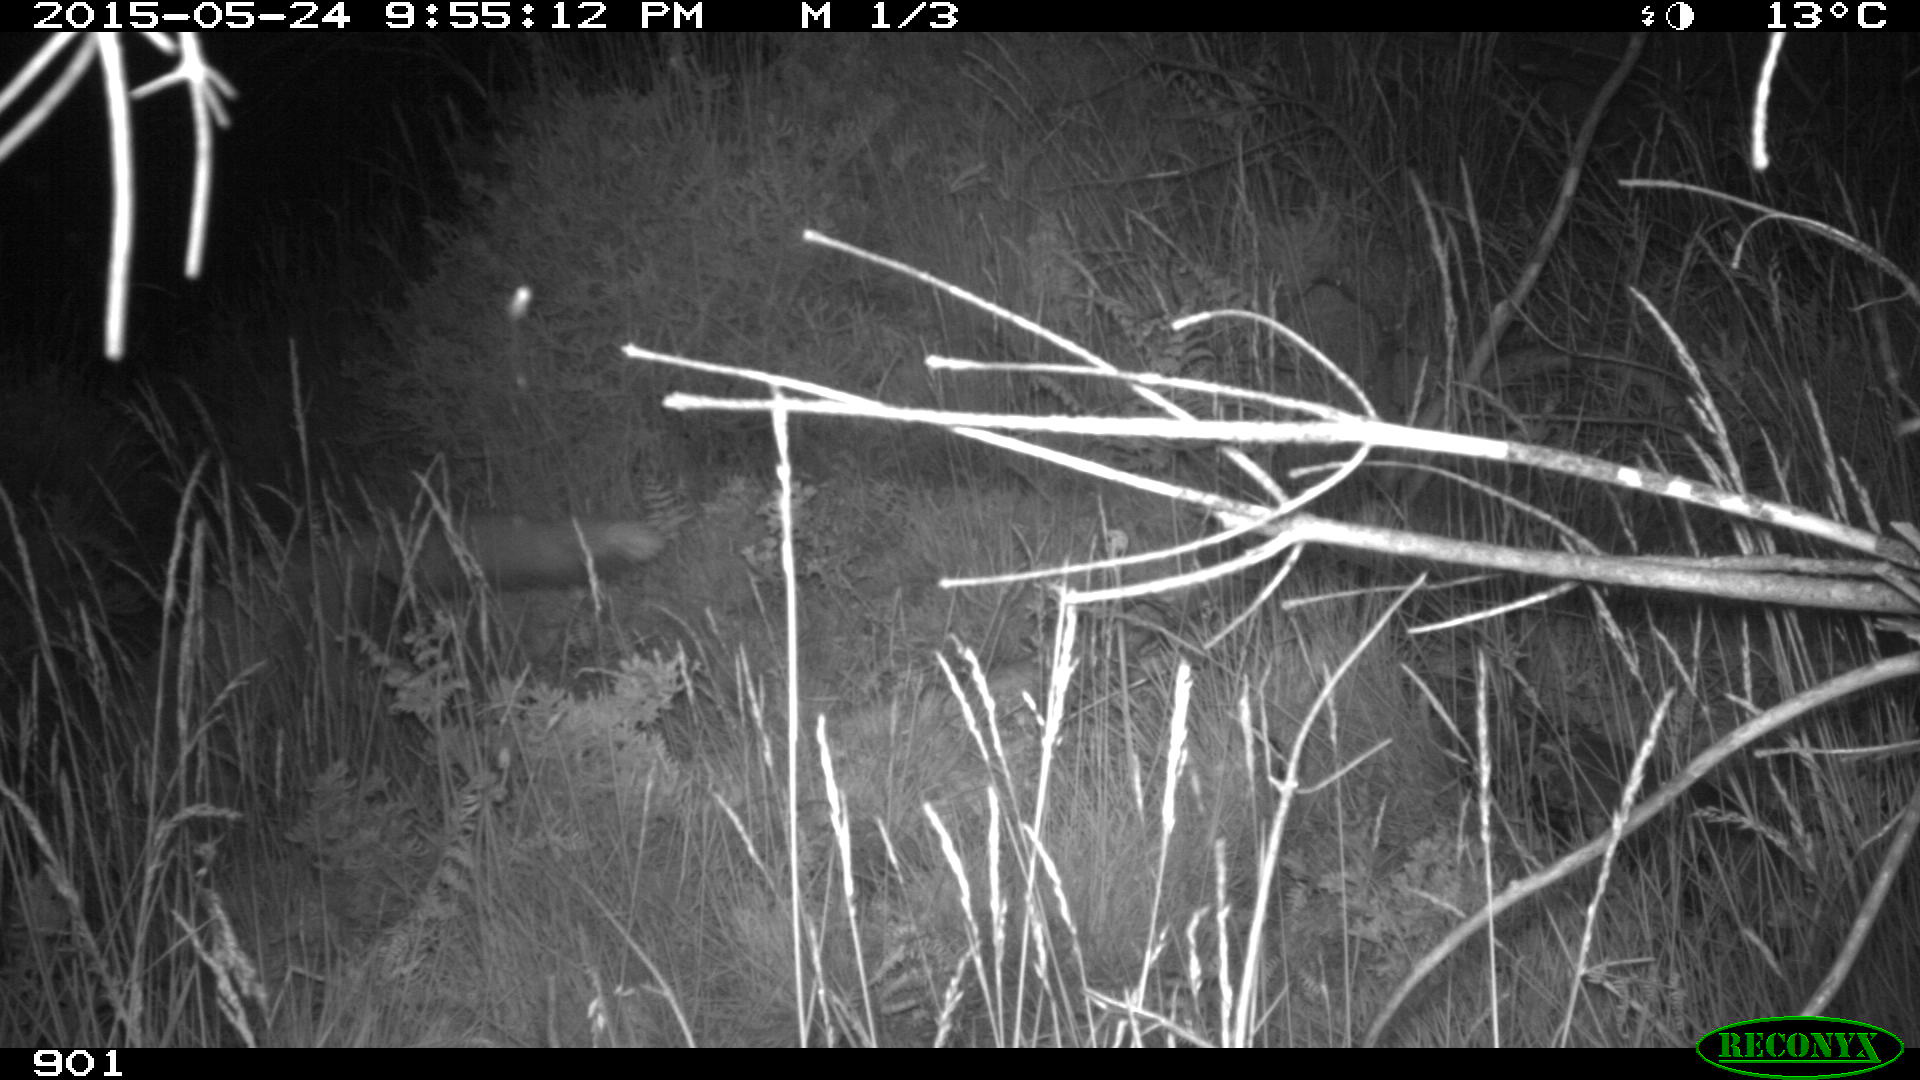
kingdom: Animalia
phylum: Chordata
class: Mammalia
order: Carnivora
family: Canidae
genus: Vulpes
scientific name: Vulpes vulpes
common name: Red fox
